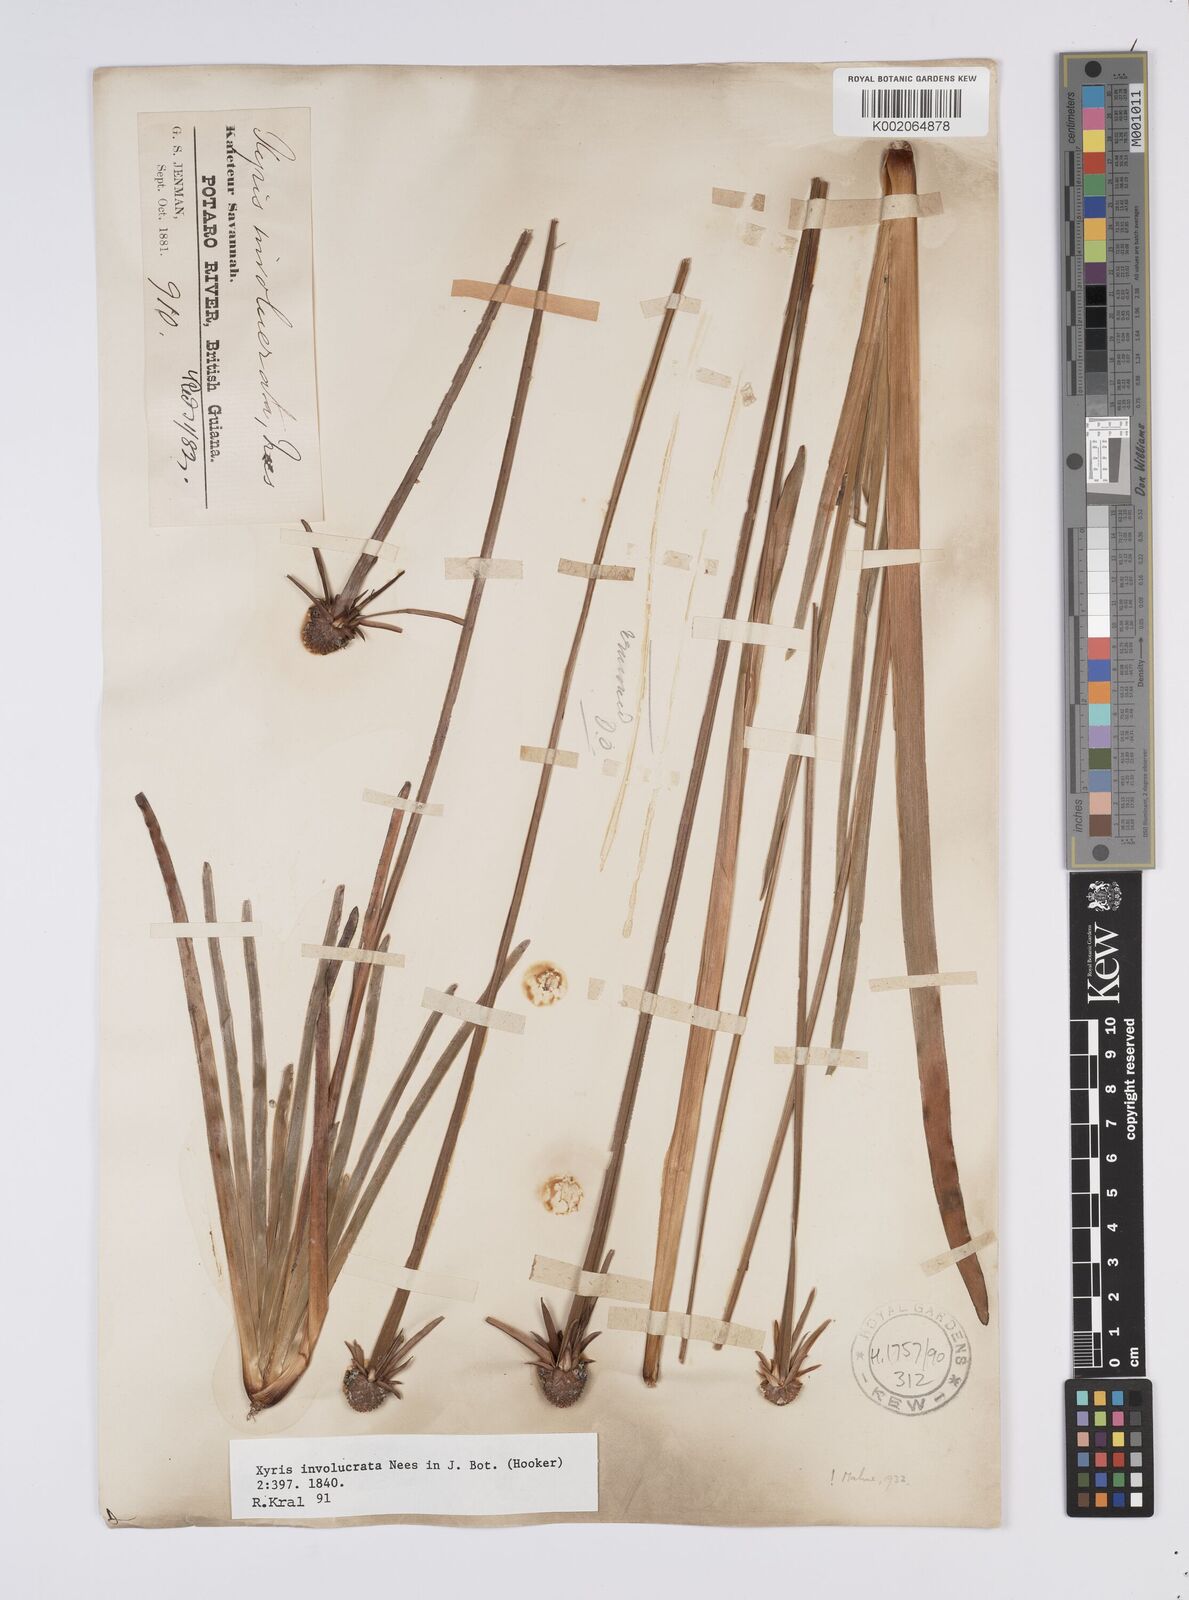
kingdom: Plantae
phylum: Tracheophyta
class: Liliopsida
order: Poales
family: Xyridaceae
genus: Xyris
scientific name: Xyris involucrata
